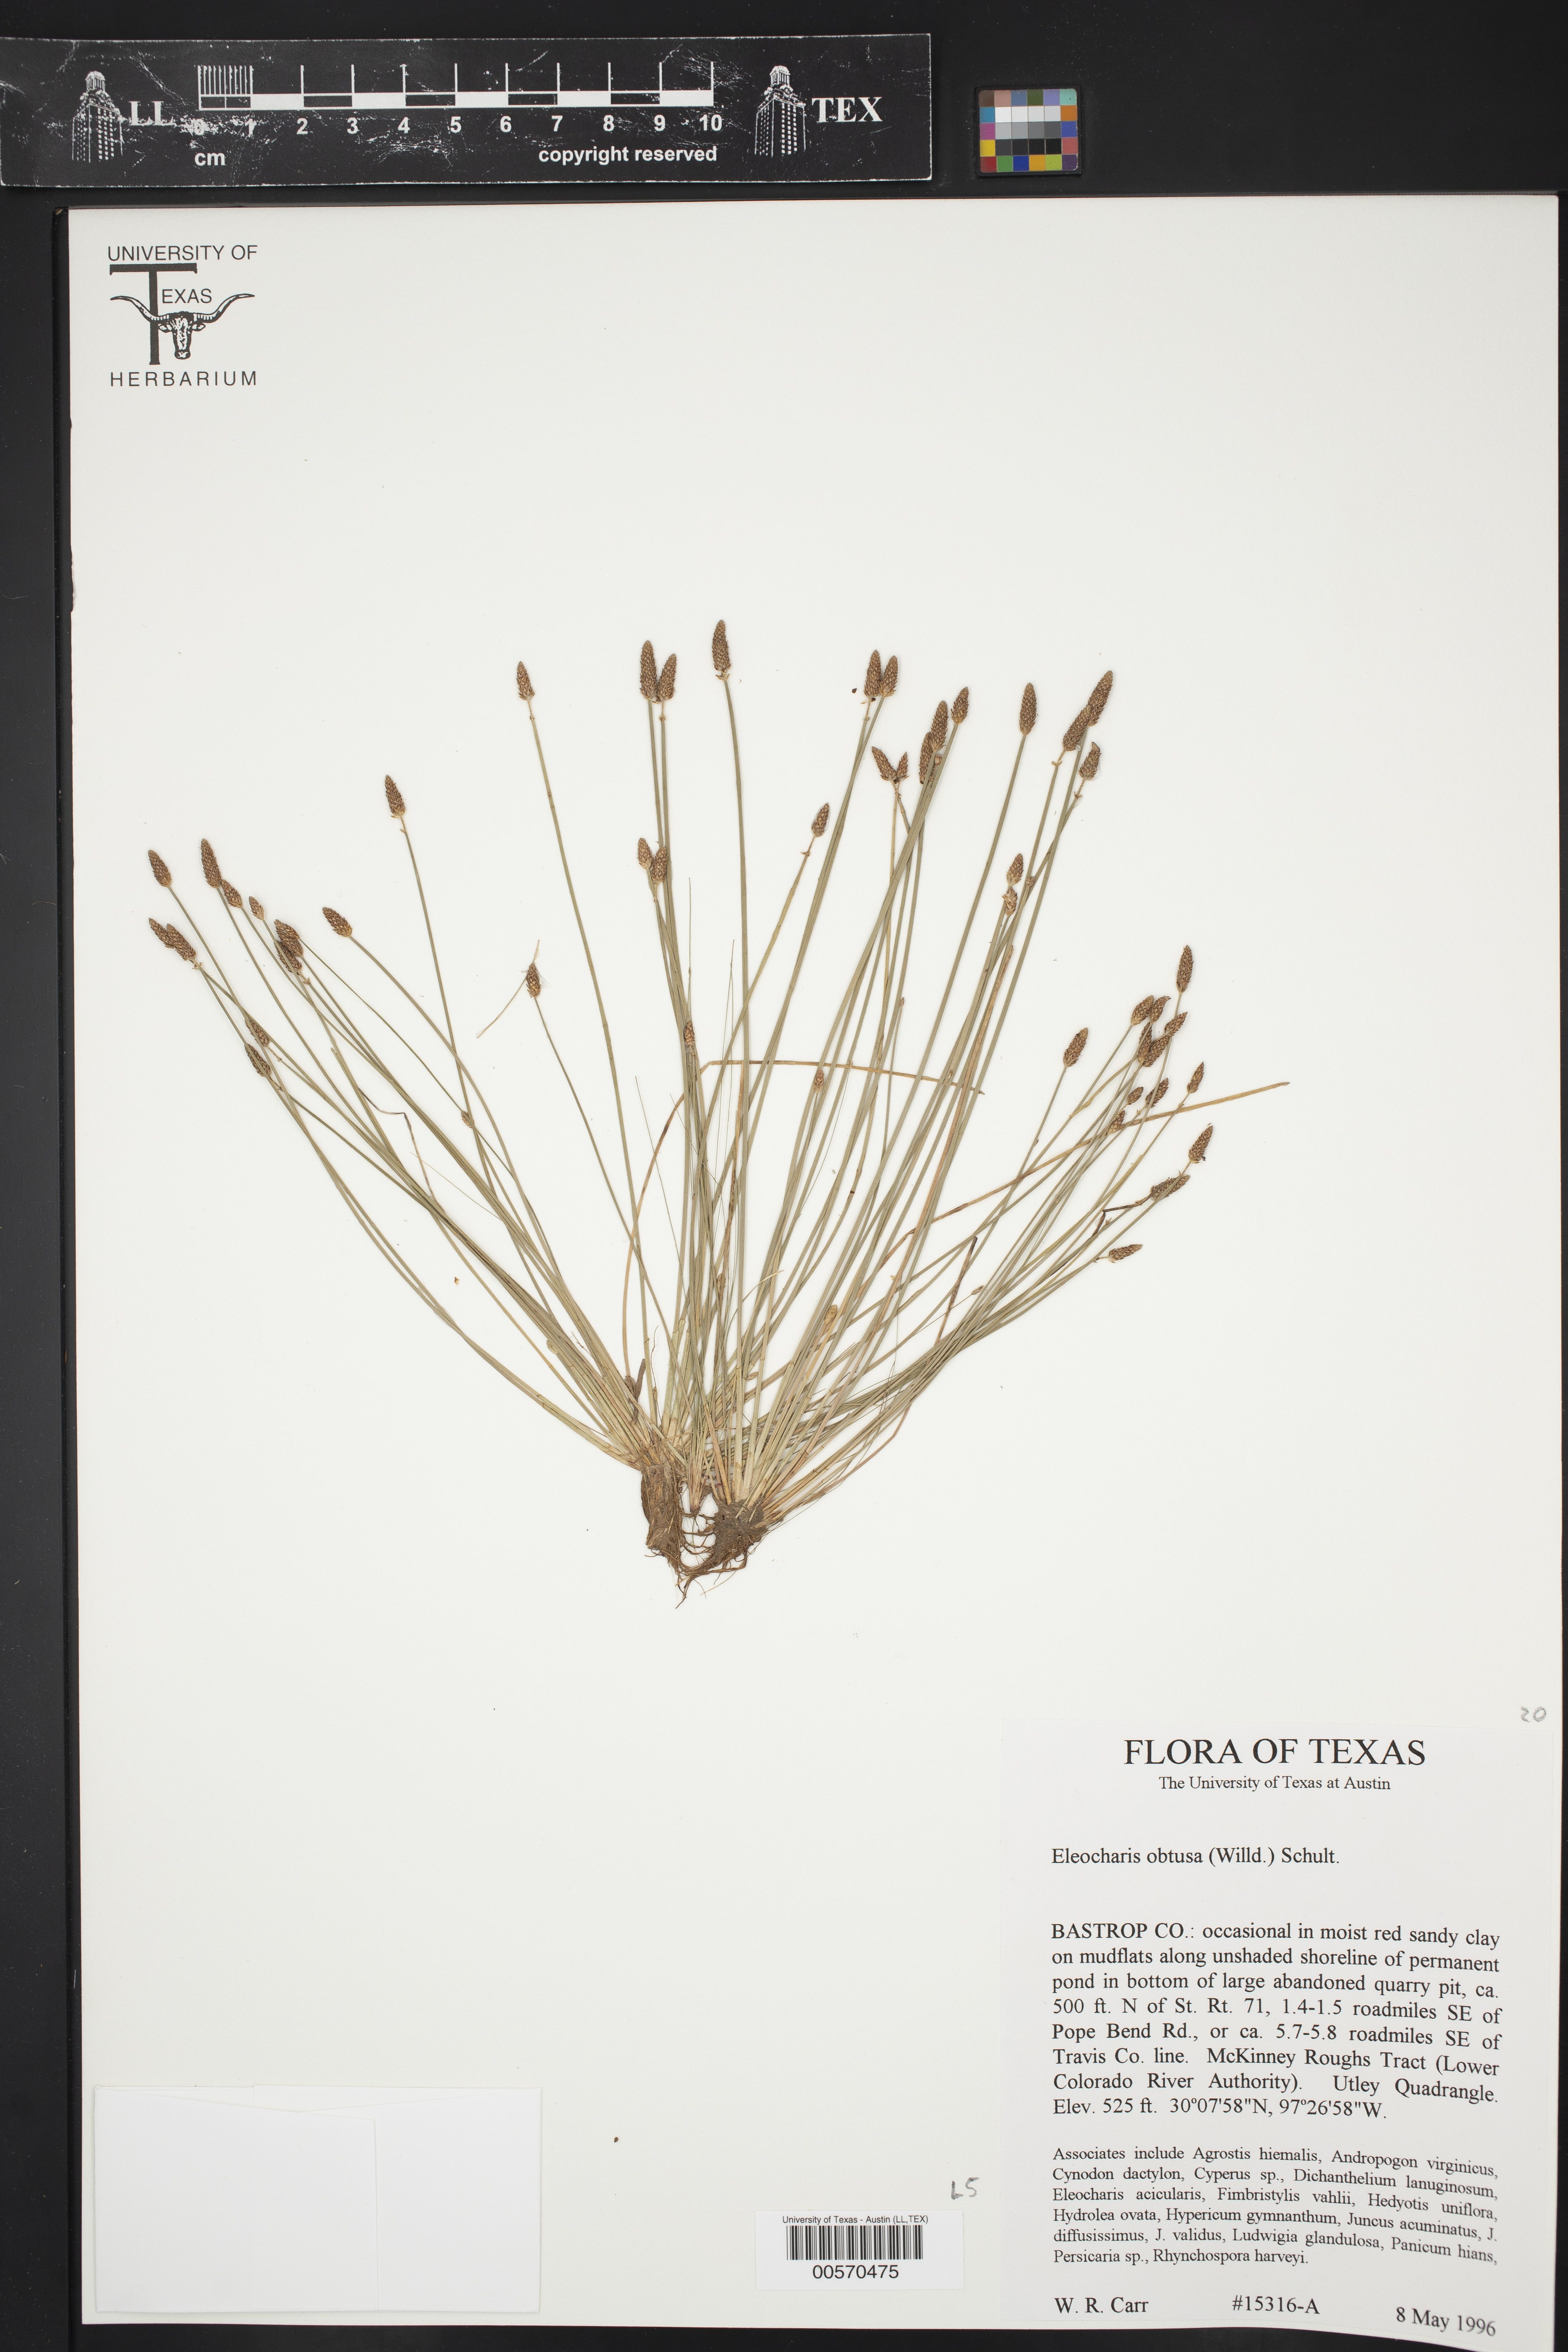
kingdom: Plantae
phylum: Tracheophyta
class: Liliopsida
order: Poales
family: Cyperaceae
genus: Eleocharis
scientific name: Eleocharis obtusa
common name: Blunt spikerush
